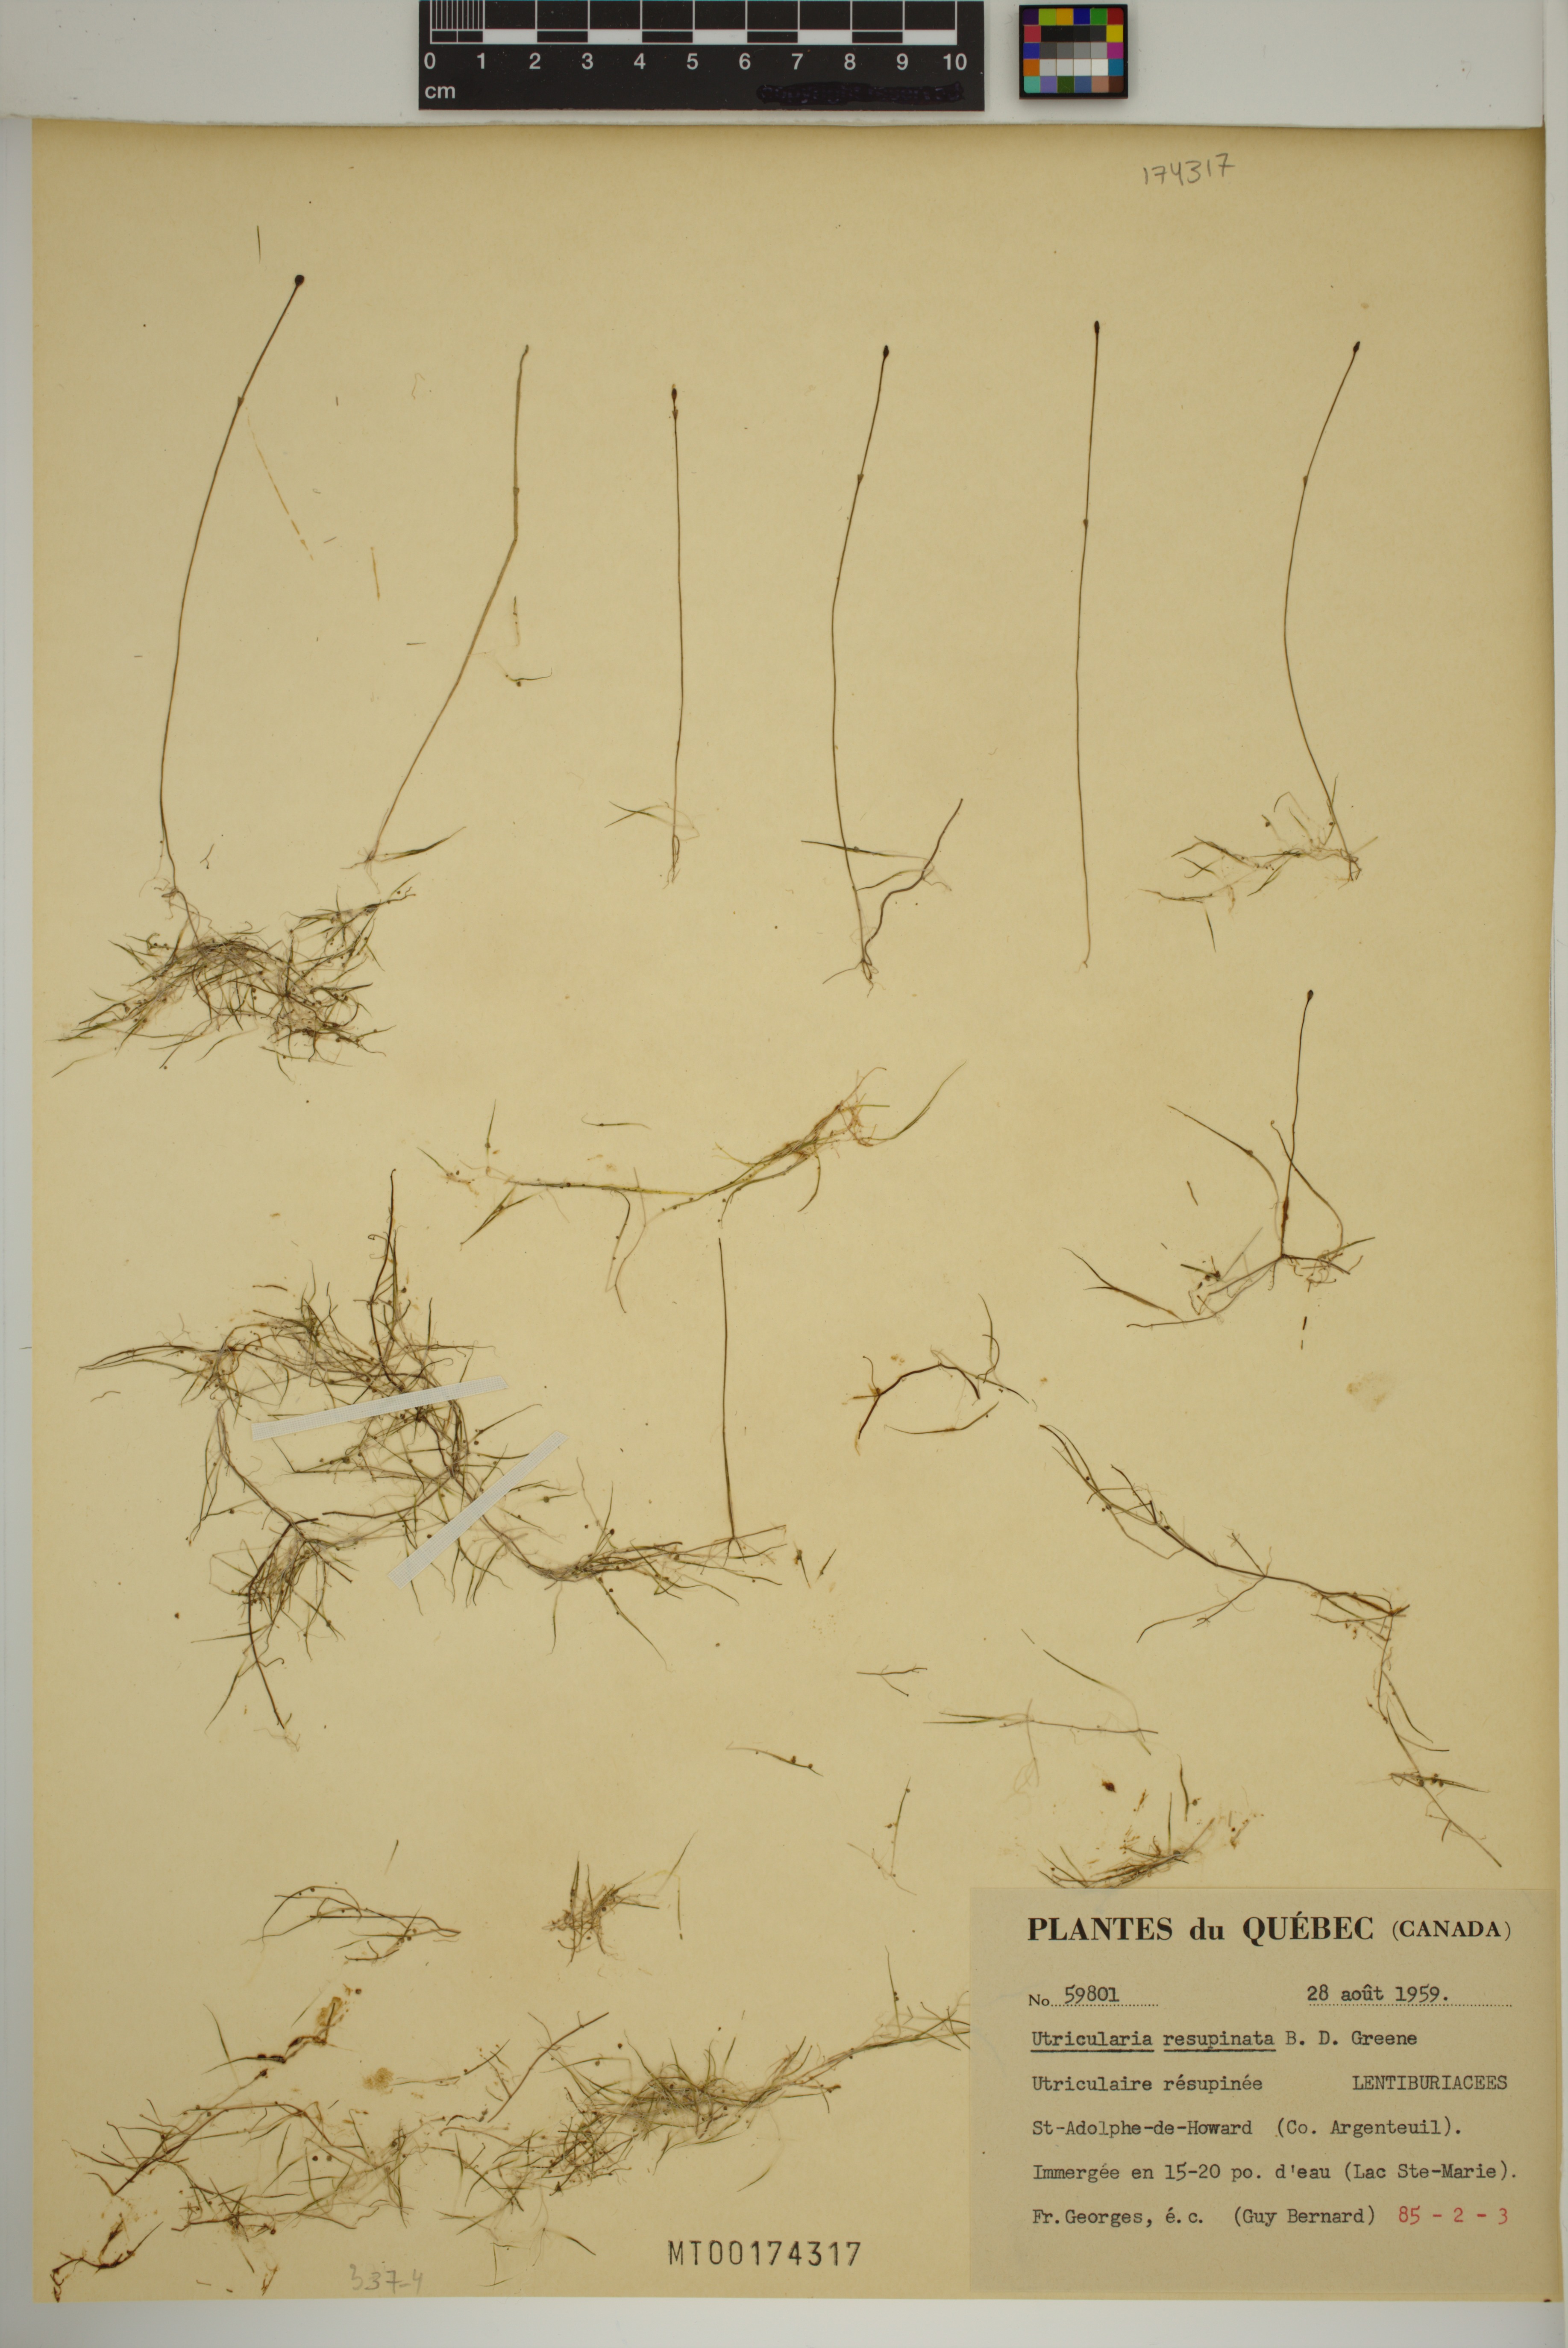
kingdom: Plantae
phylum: Tracheophyta
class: Magnoliopsida
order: Lamiales
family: Lentibulariaceae
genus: Utricularia
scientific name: Utricularia resupinata
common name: Northeastern bladderwort
